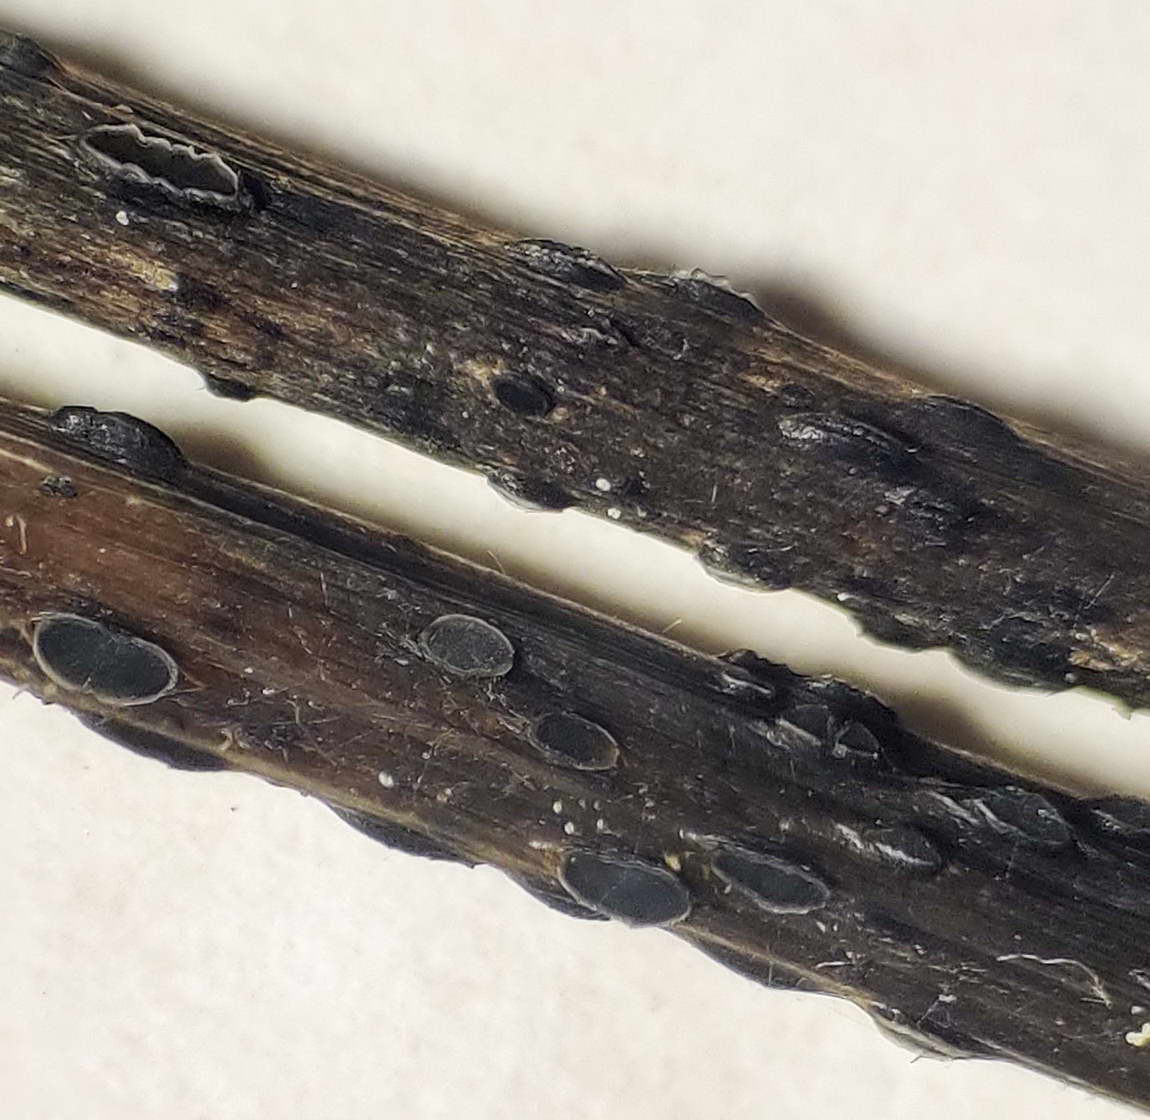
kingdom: Fungi
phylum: Ascomycota
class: Leotiomycetes
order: Helotiales
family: Ploettnerulaceae
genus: Pyrenopeziza
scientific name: Pyrenopeziza petiolaris
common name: ahorn-kerneskive
